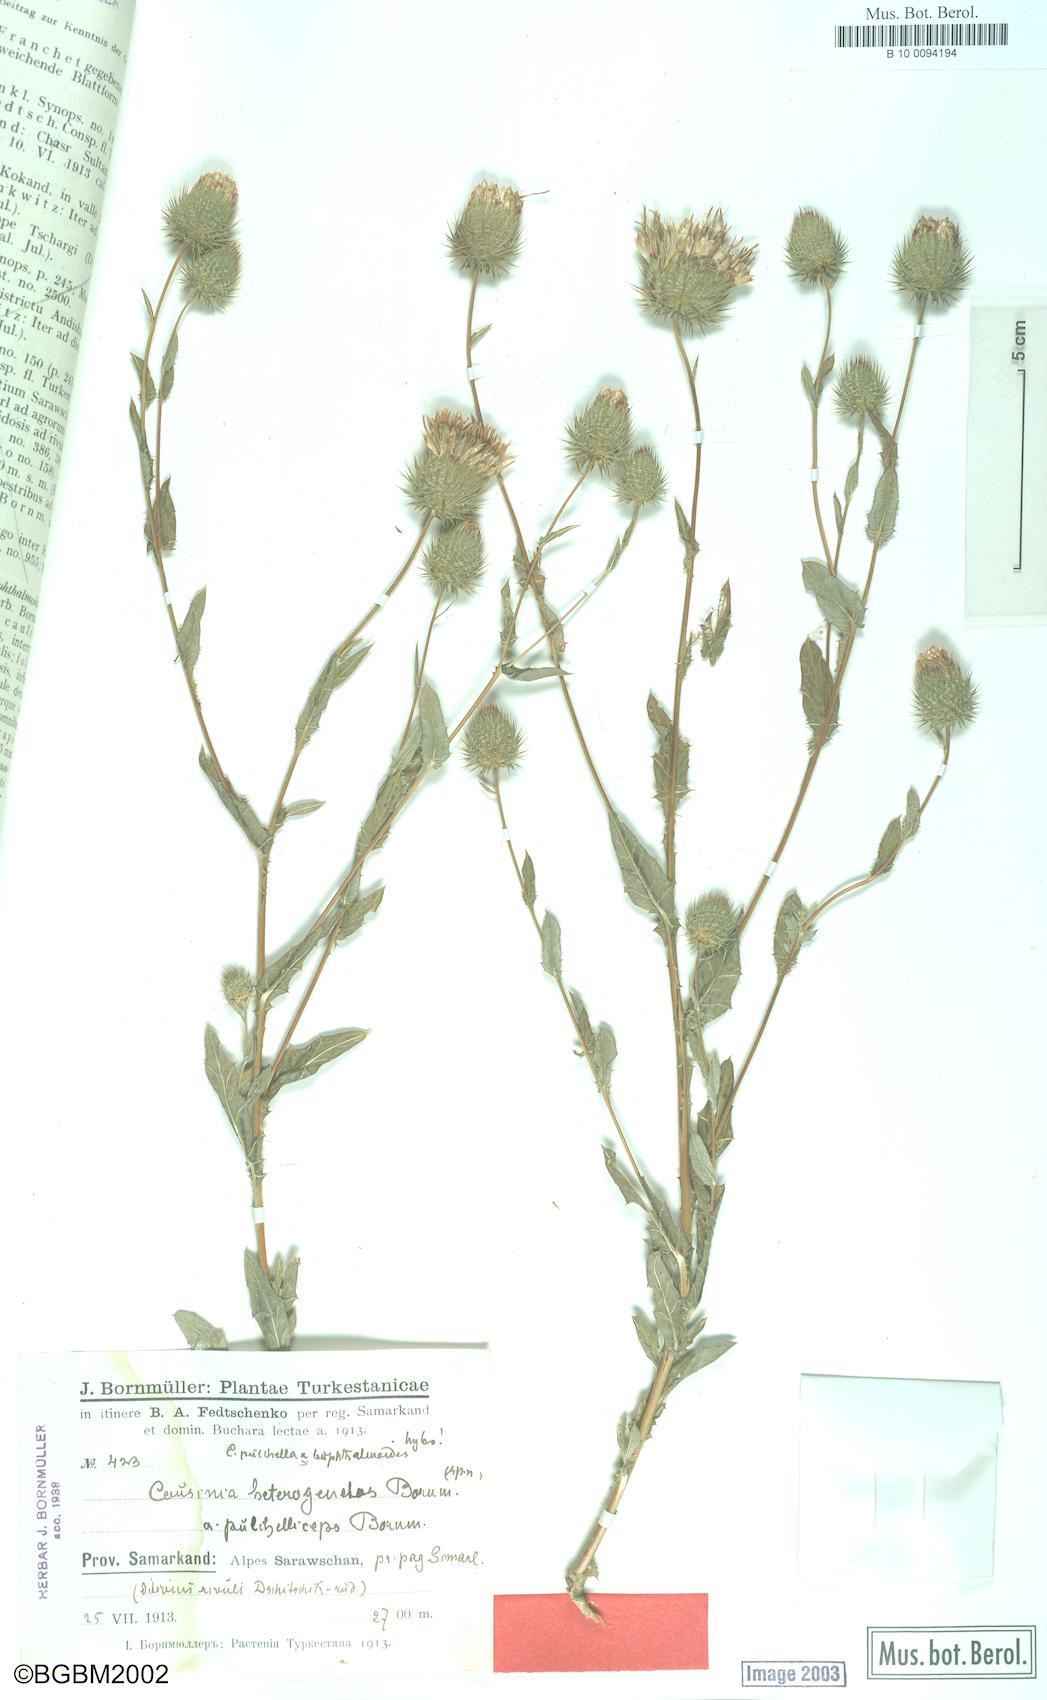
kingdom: Plantae
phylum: Tracheophyta
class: Magnoliopsida
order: Asterales
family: Asteraceae
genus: Cousinia
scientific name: Cousinia heterogenetos
